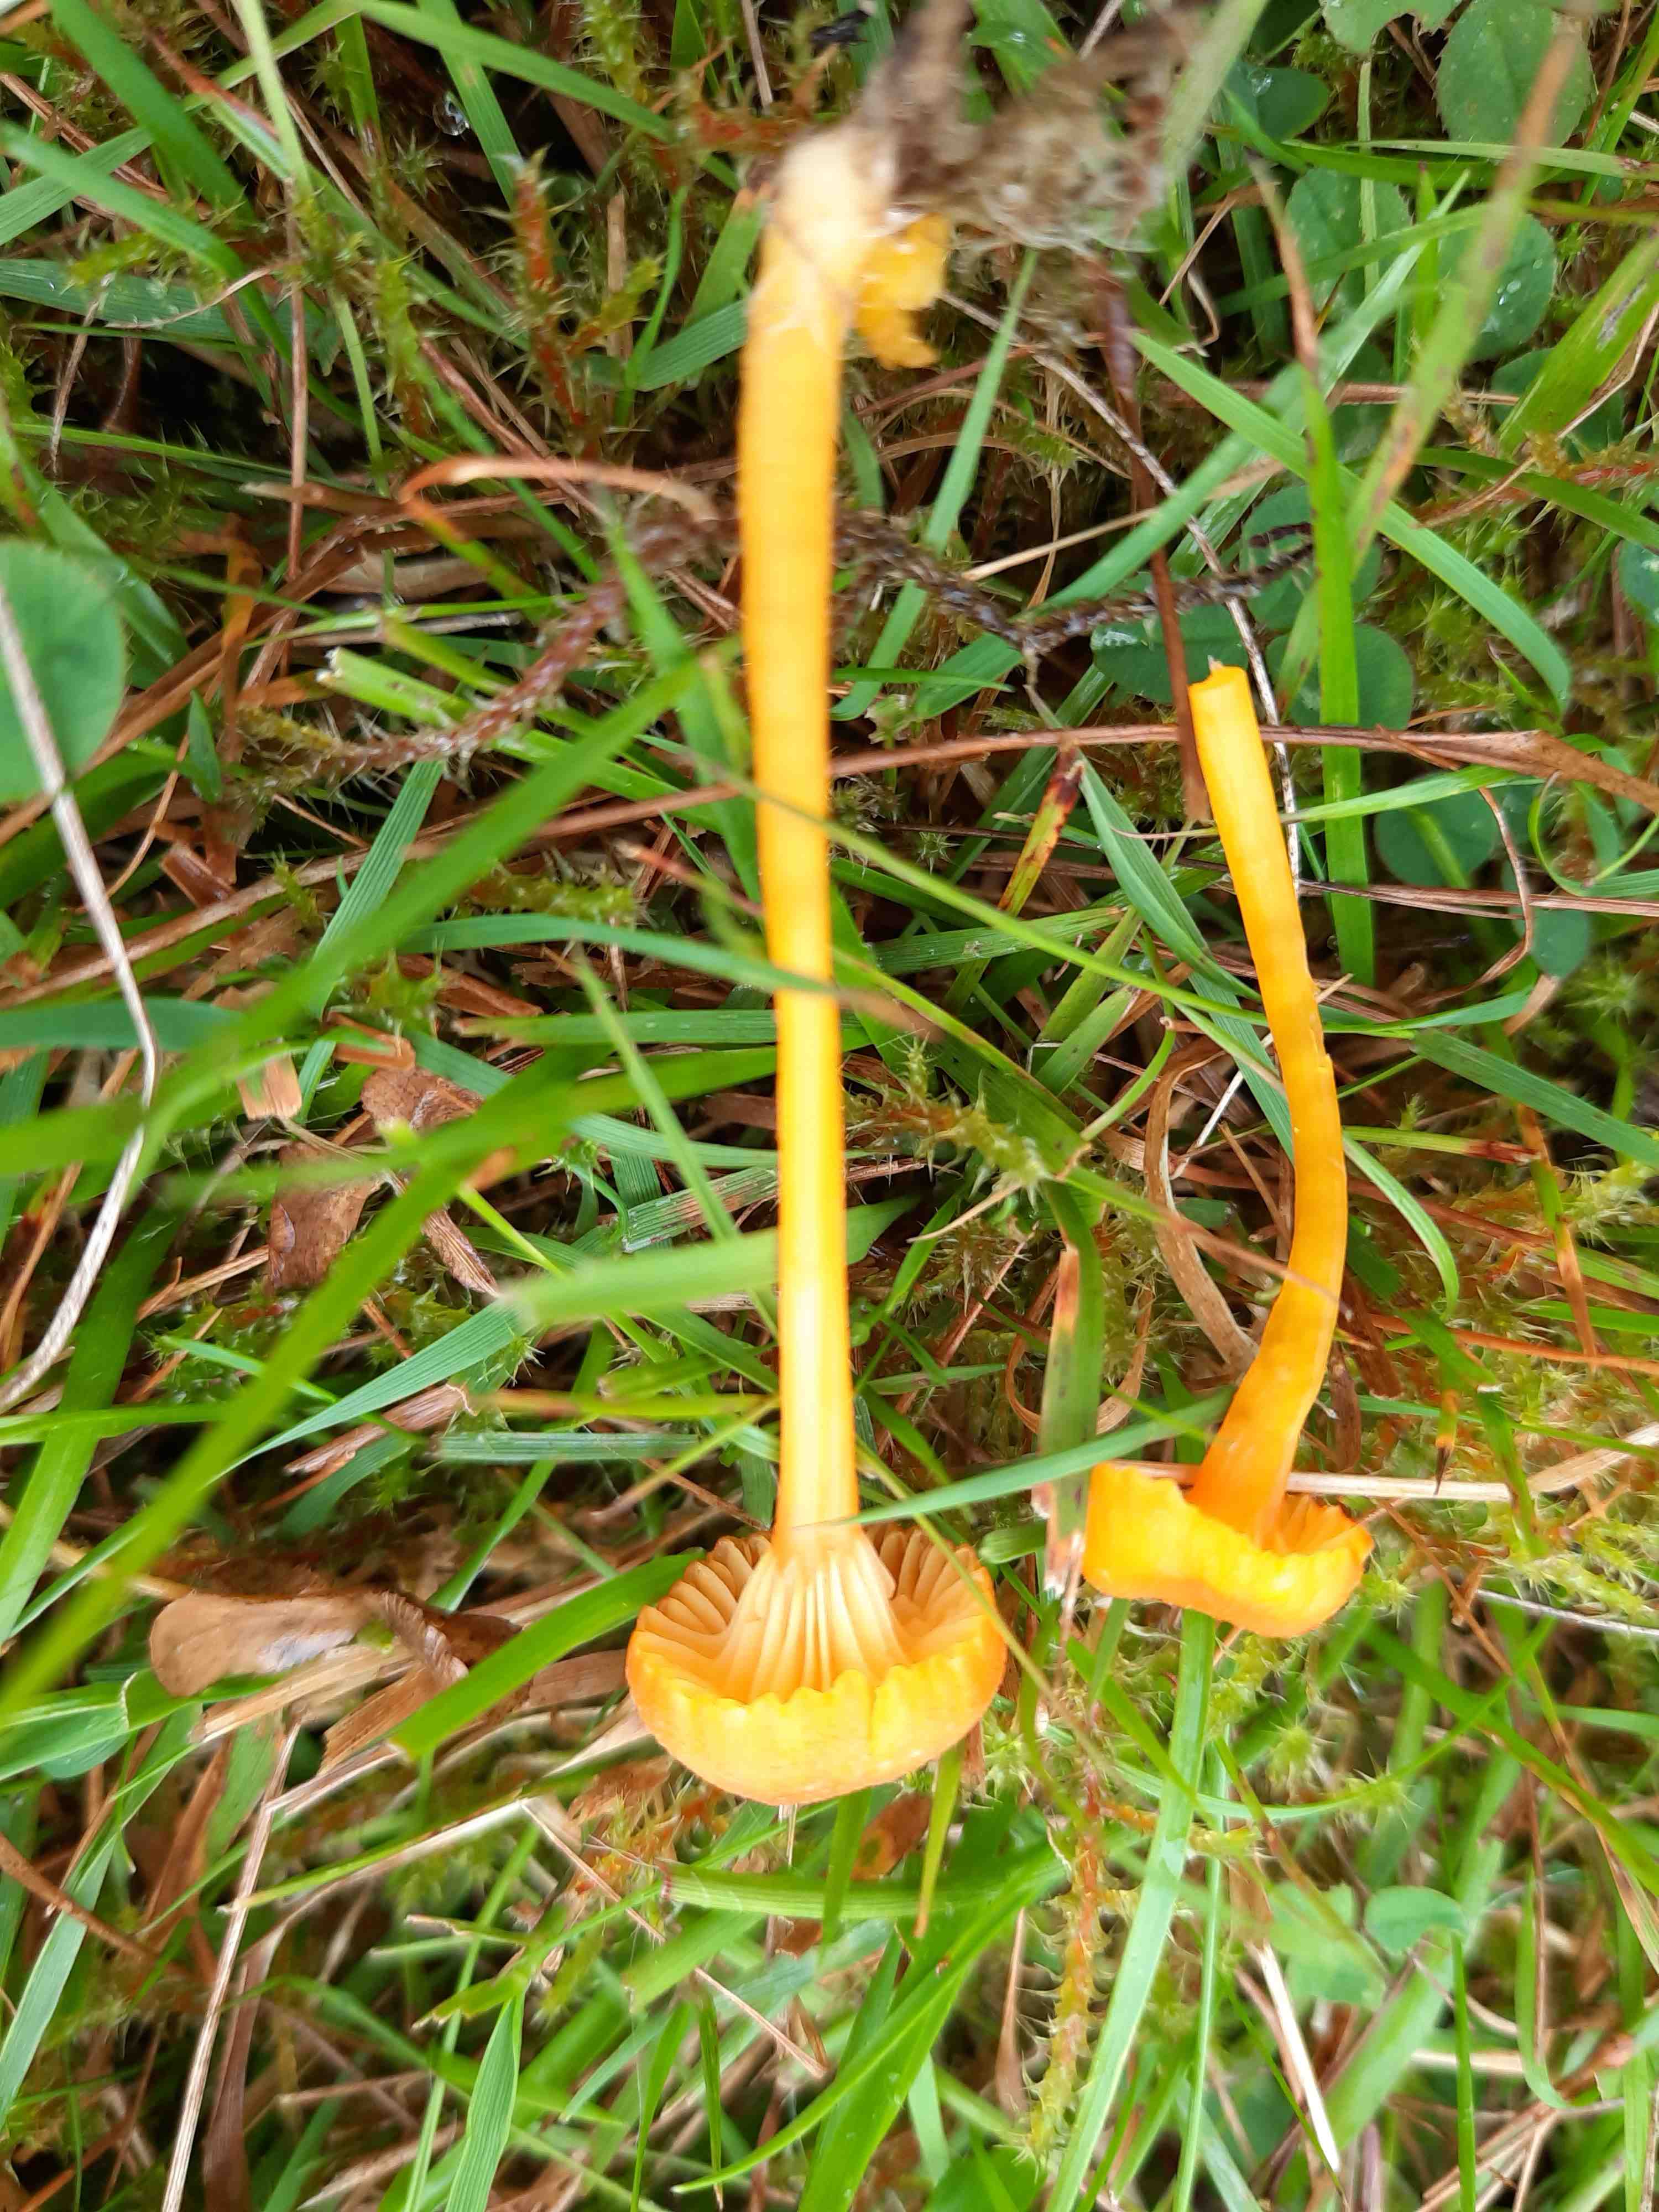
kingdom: Fungi
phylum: Basidiomycota
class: Agaricomycetes
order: Agaricales
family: Hygrophoraceae
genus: Hygrocybe
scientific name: Hygrocybe cantharellus
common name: kantarel-vokshat
